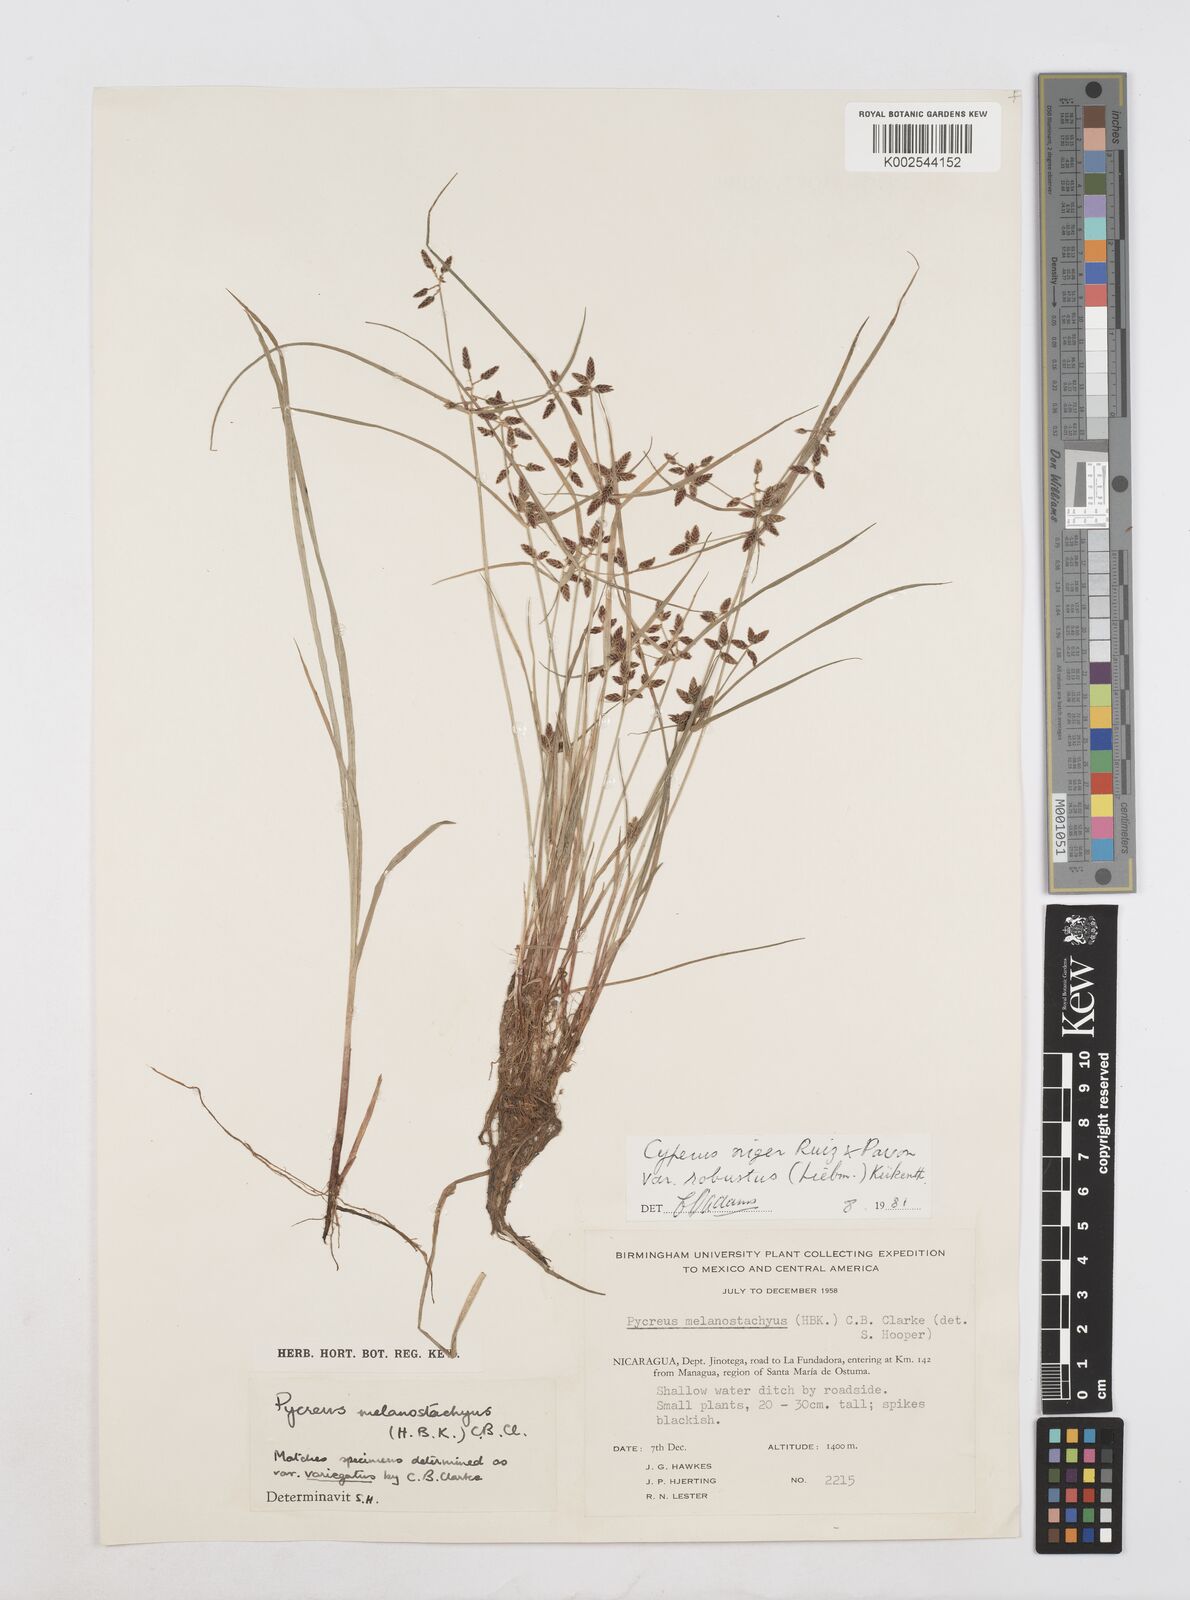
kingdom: Plantae
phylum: Tracheophyta
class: Liliopsida
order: Poales
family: Cyperaceae
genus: Cyperus
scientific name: Cyperus melanostachyus
